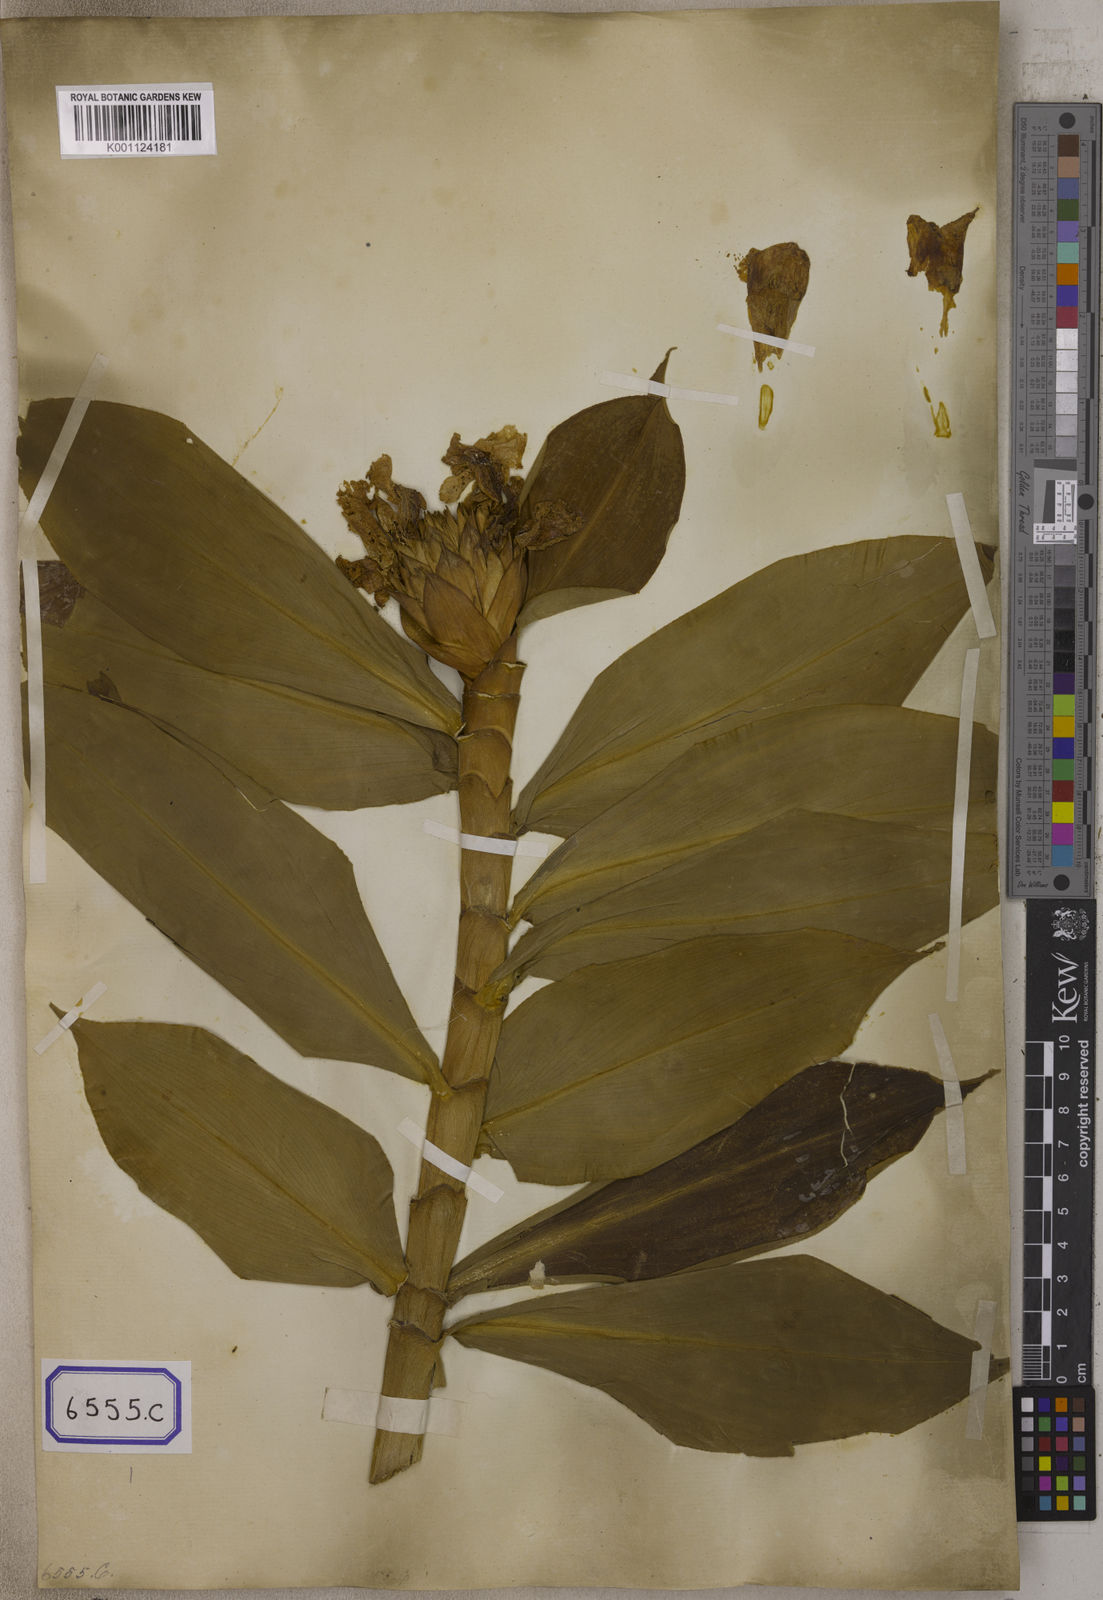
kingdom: Plantae
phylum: Tracheophyta
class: Liliopsida
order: Zingiberales
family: Costaceae
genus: Hellenia
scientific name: Hellenia speciosa
